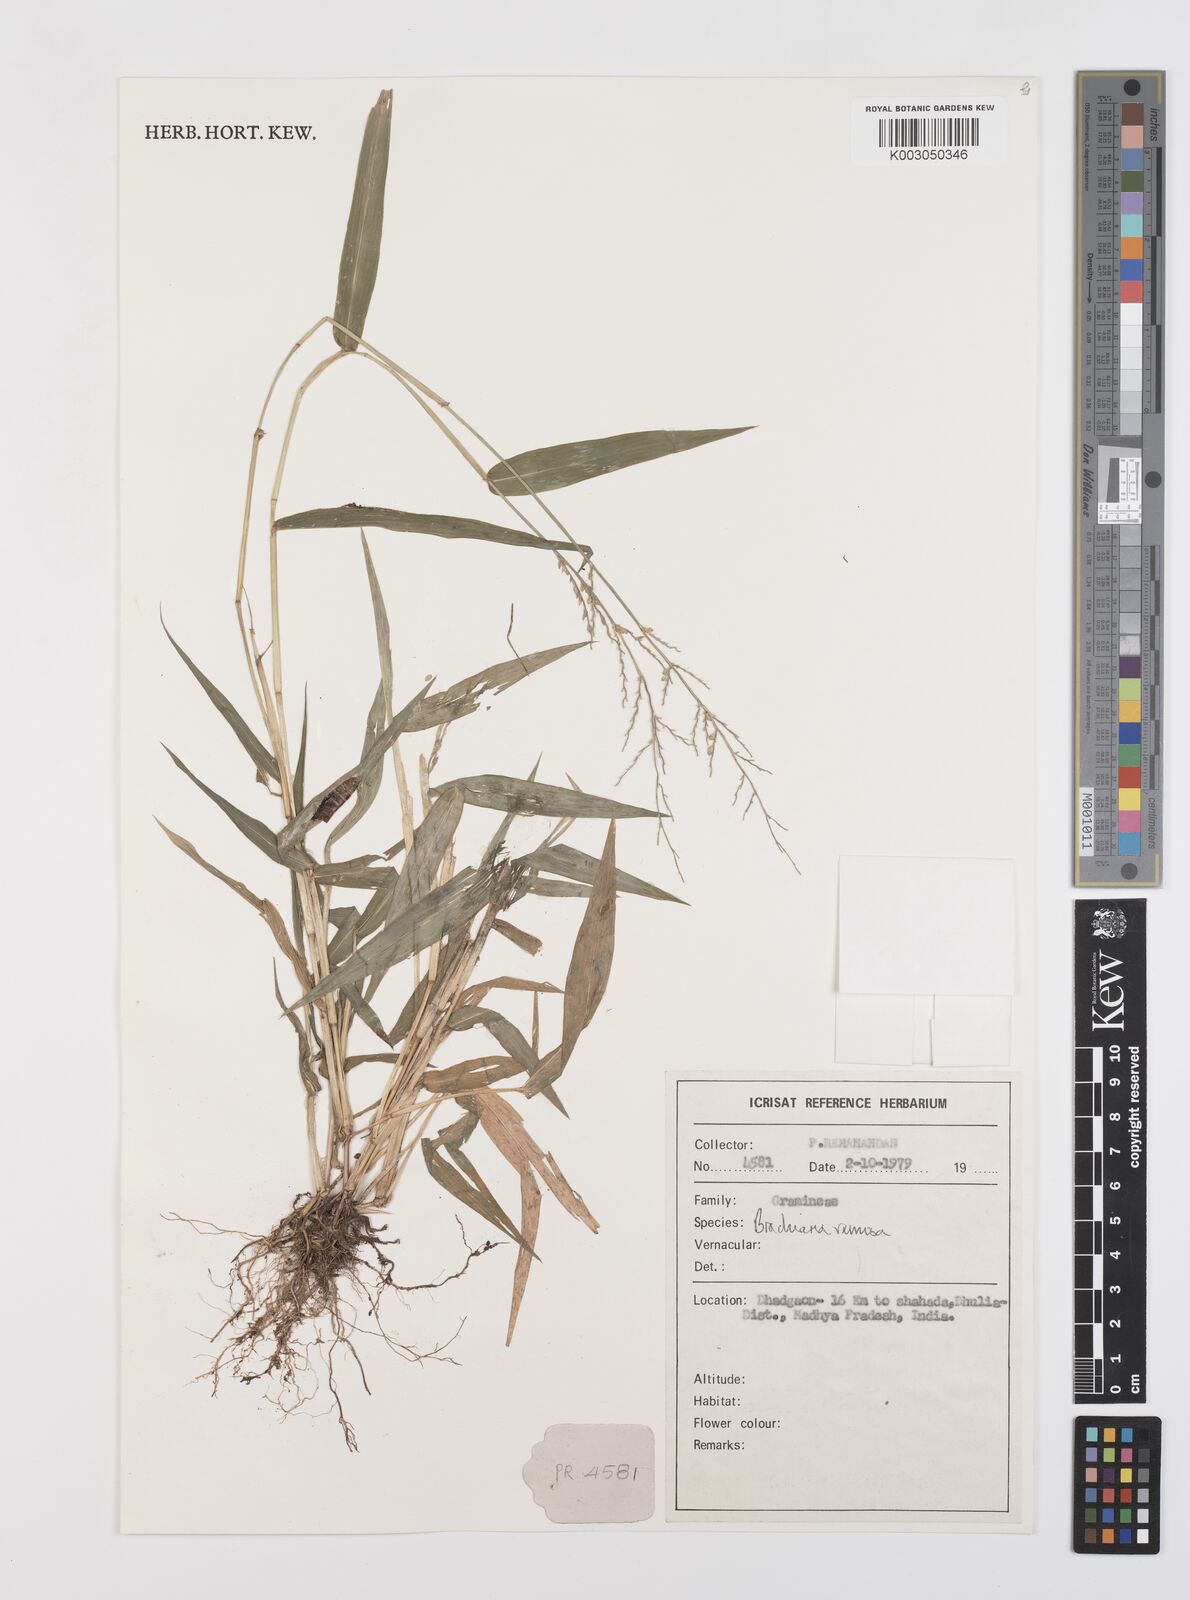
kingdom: Plantae
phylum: Tracheophyta
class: Liliopsida
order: Poales
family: Poaceae
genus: Urochloa
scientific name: Urochloa ramosa
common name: Browntop millet
